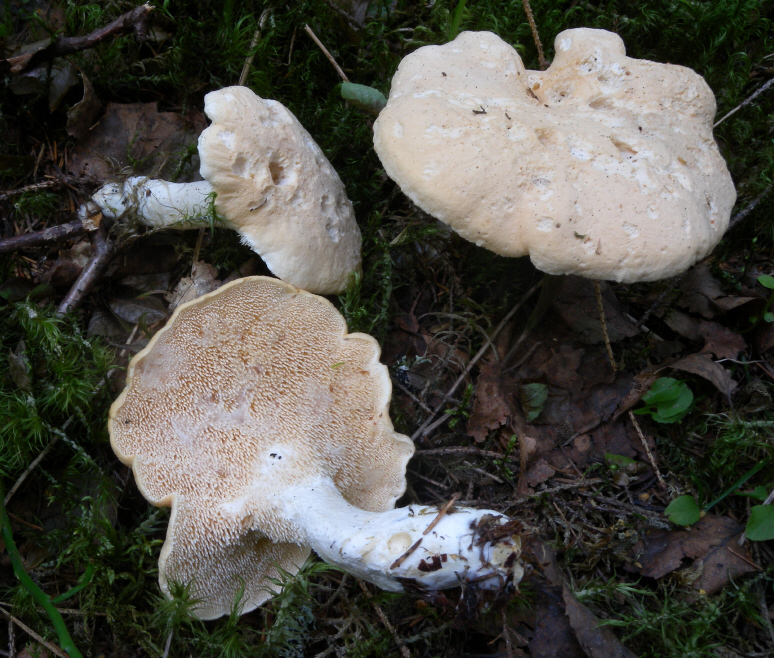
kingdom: Fungi
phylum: Basidiomycota
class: Agaricomycetes
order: Cantharellales
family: Hydnaceae
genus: Hydnum
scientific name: Hydnum repandum
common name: Wood hedgehog
